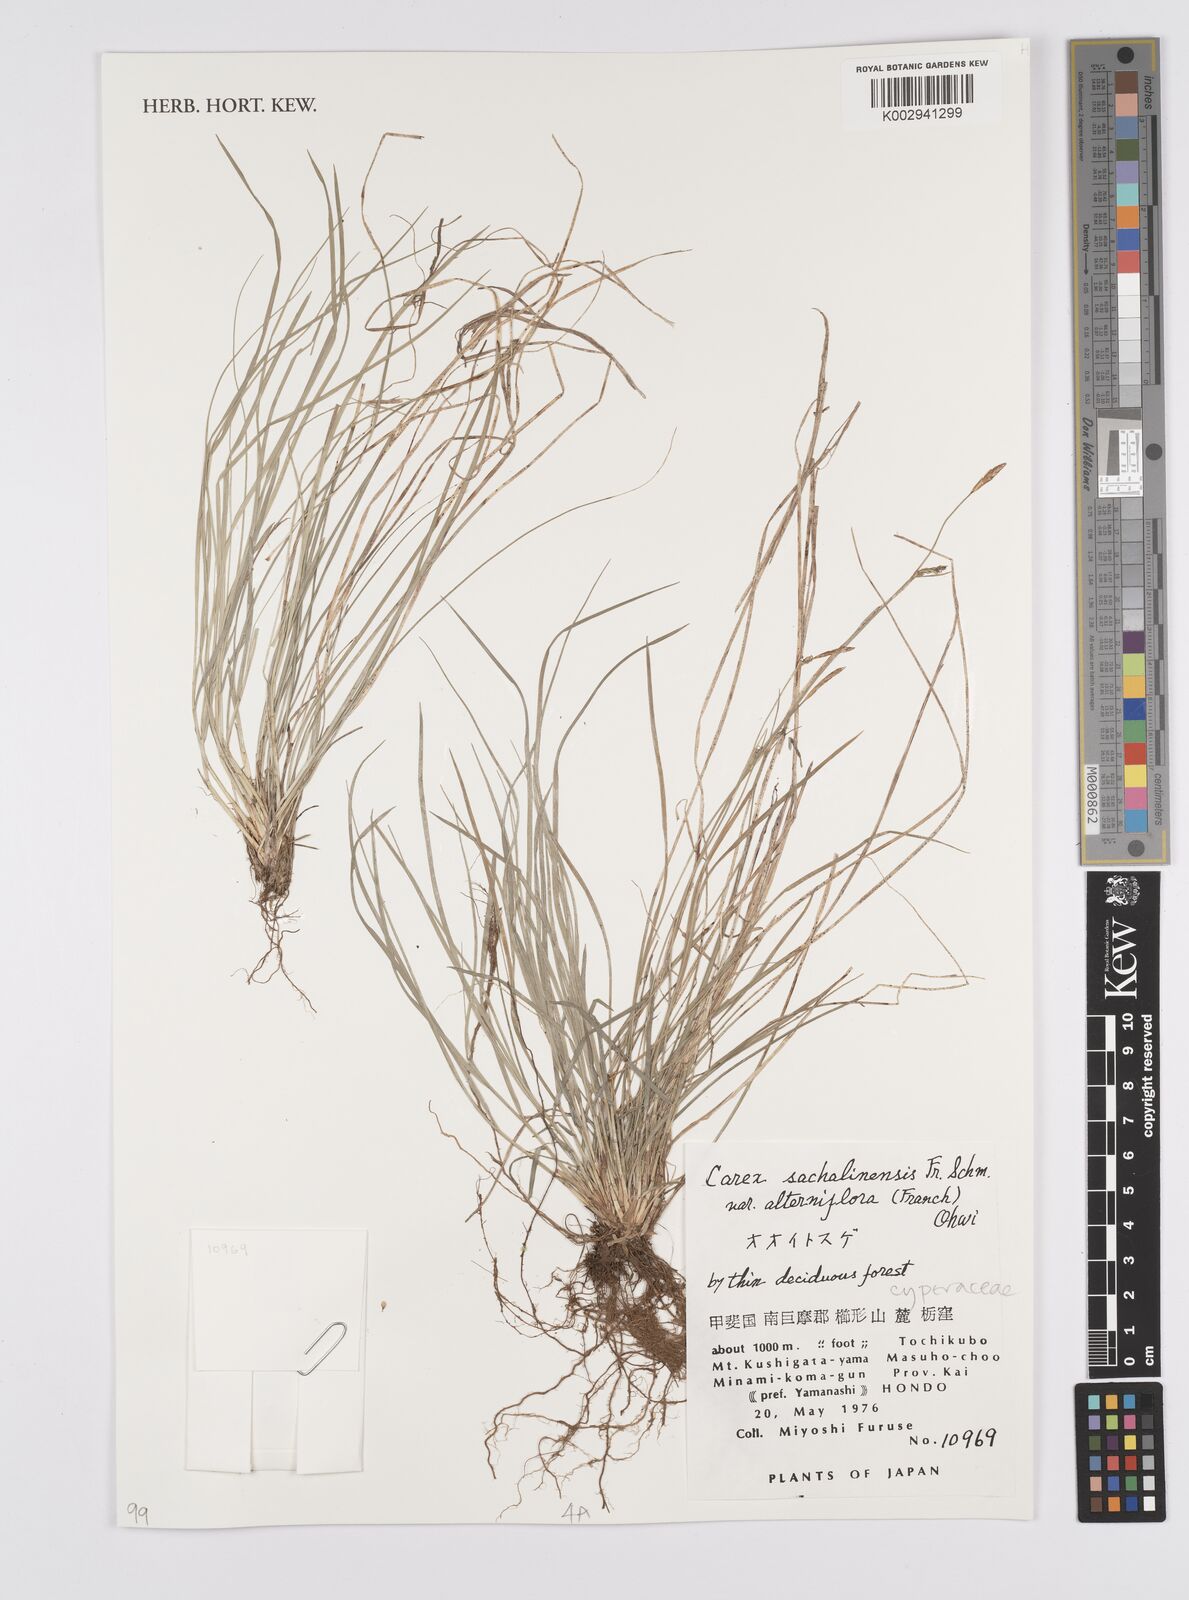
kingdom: Plantae
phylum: Tracheophyta
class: Liliopsida
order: Poales
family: Cyperaceae
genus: Carex
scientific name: Carex pisiformis
